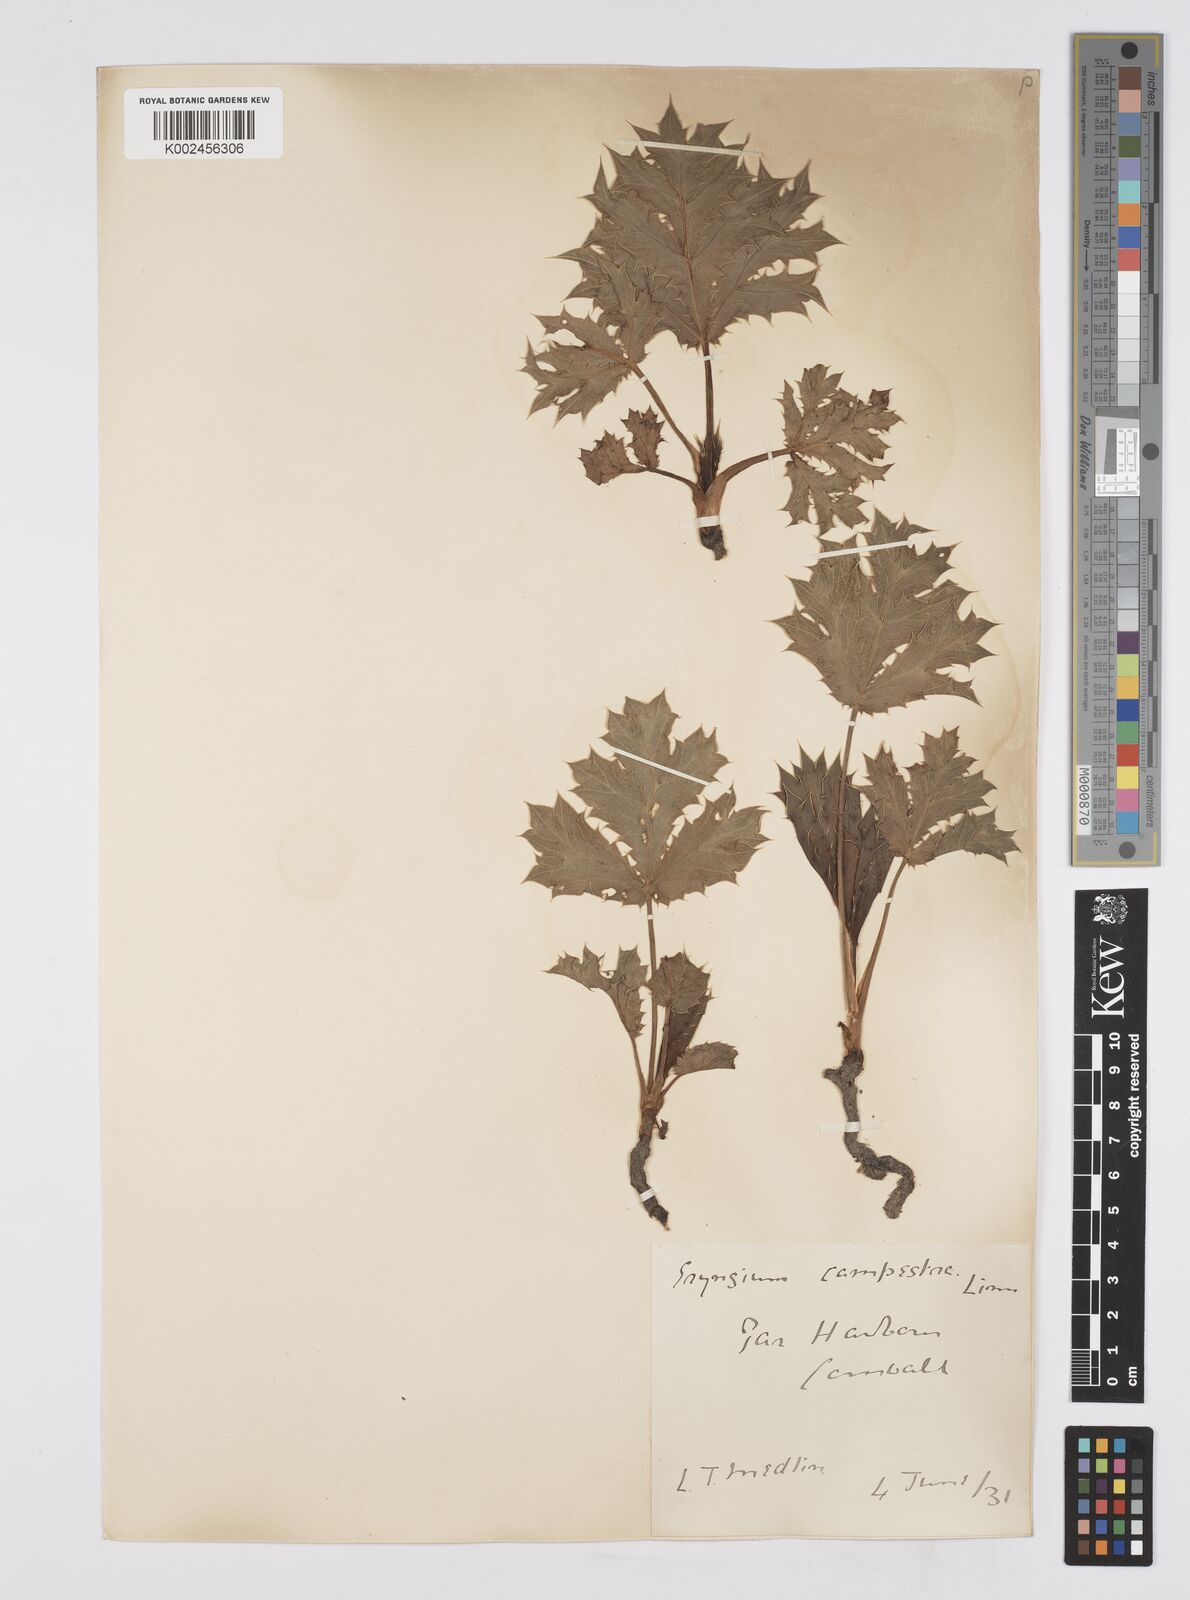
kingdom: Plantae
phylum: Tracheophyta
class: Magnoliopsida
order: Apiales
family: Apiaceae
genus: Eryngium
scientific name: Eryngium campestre
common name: Field eryngo
